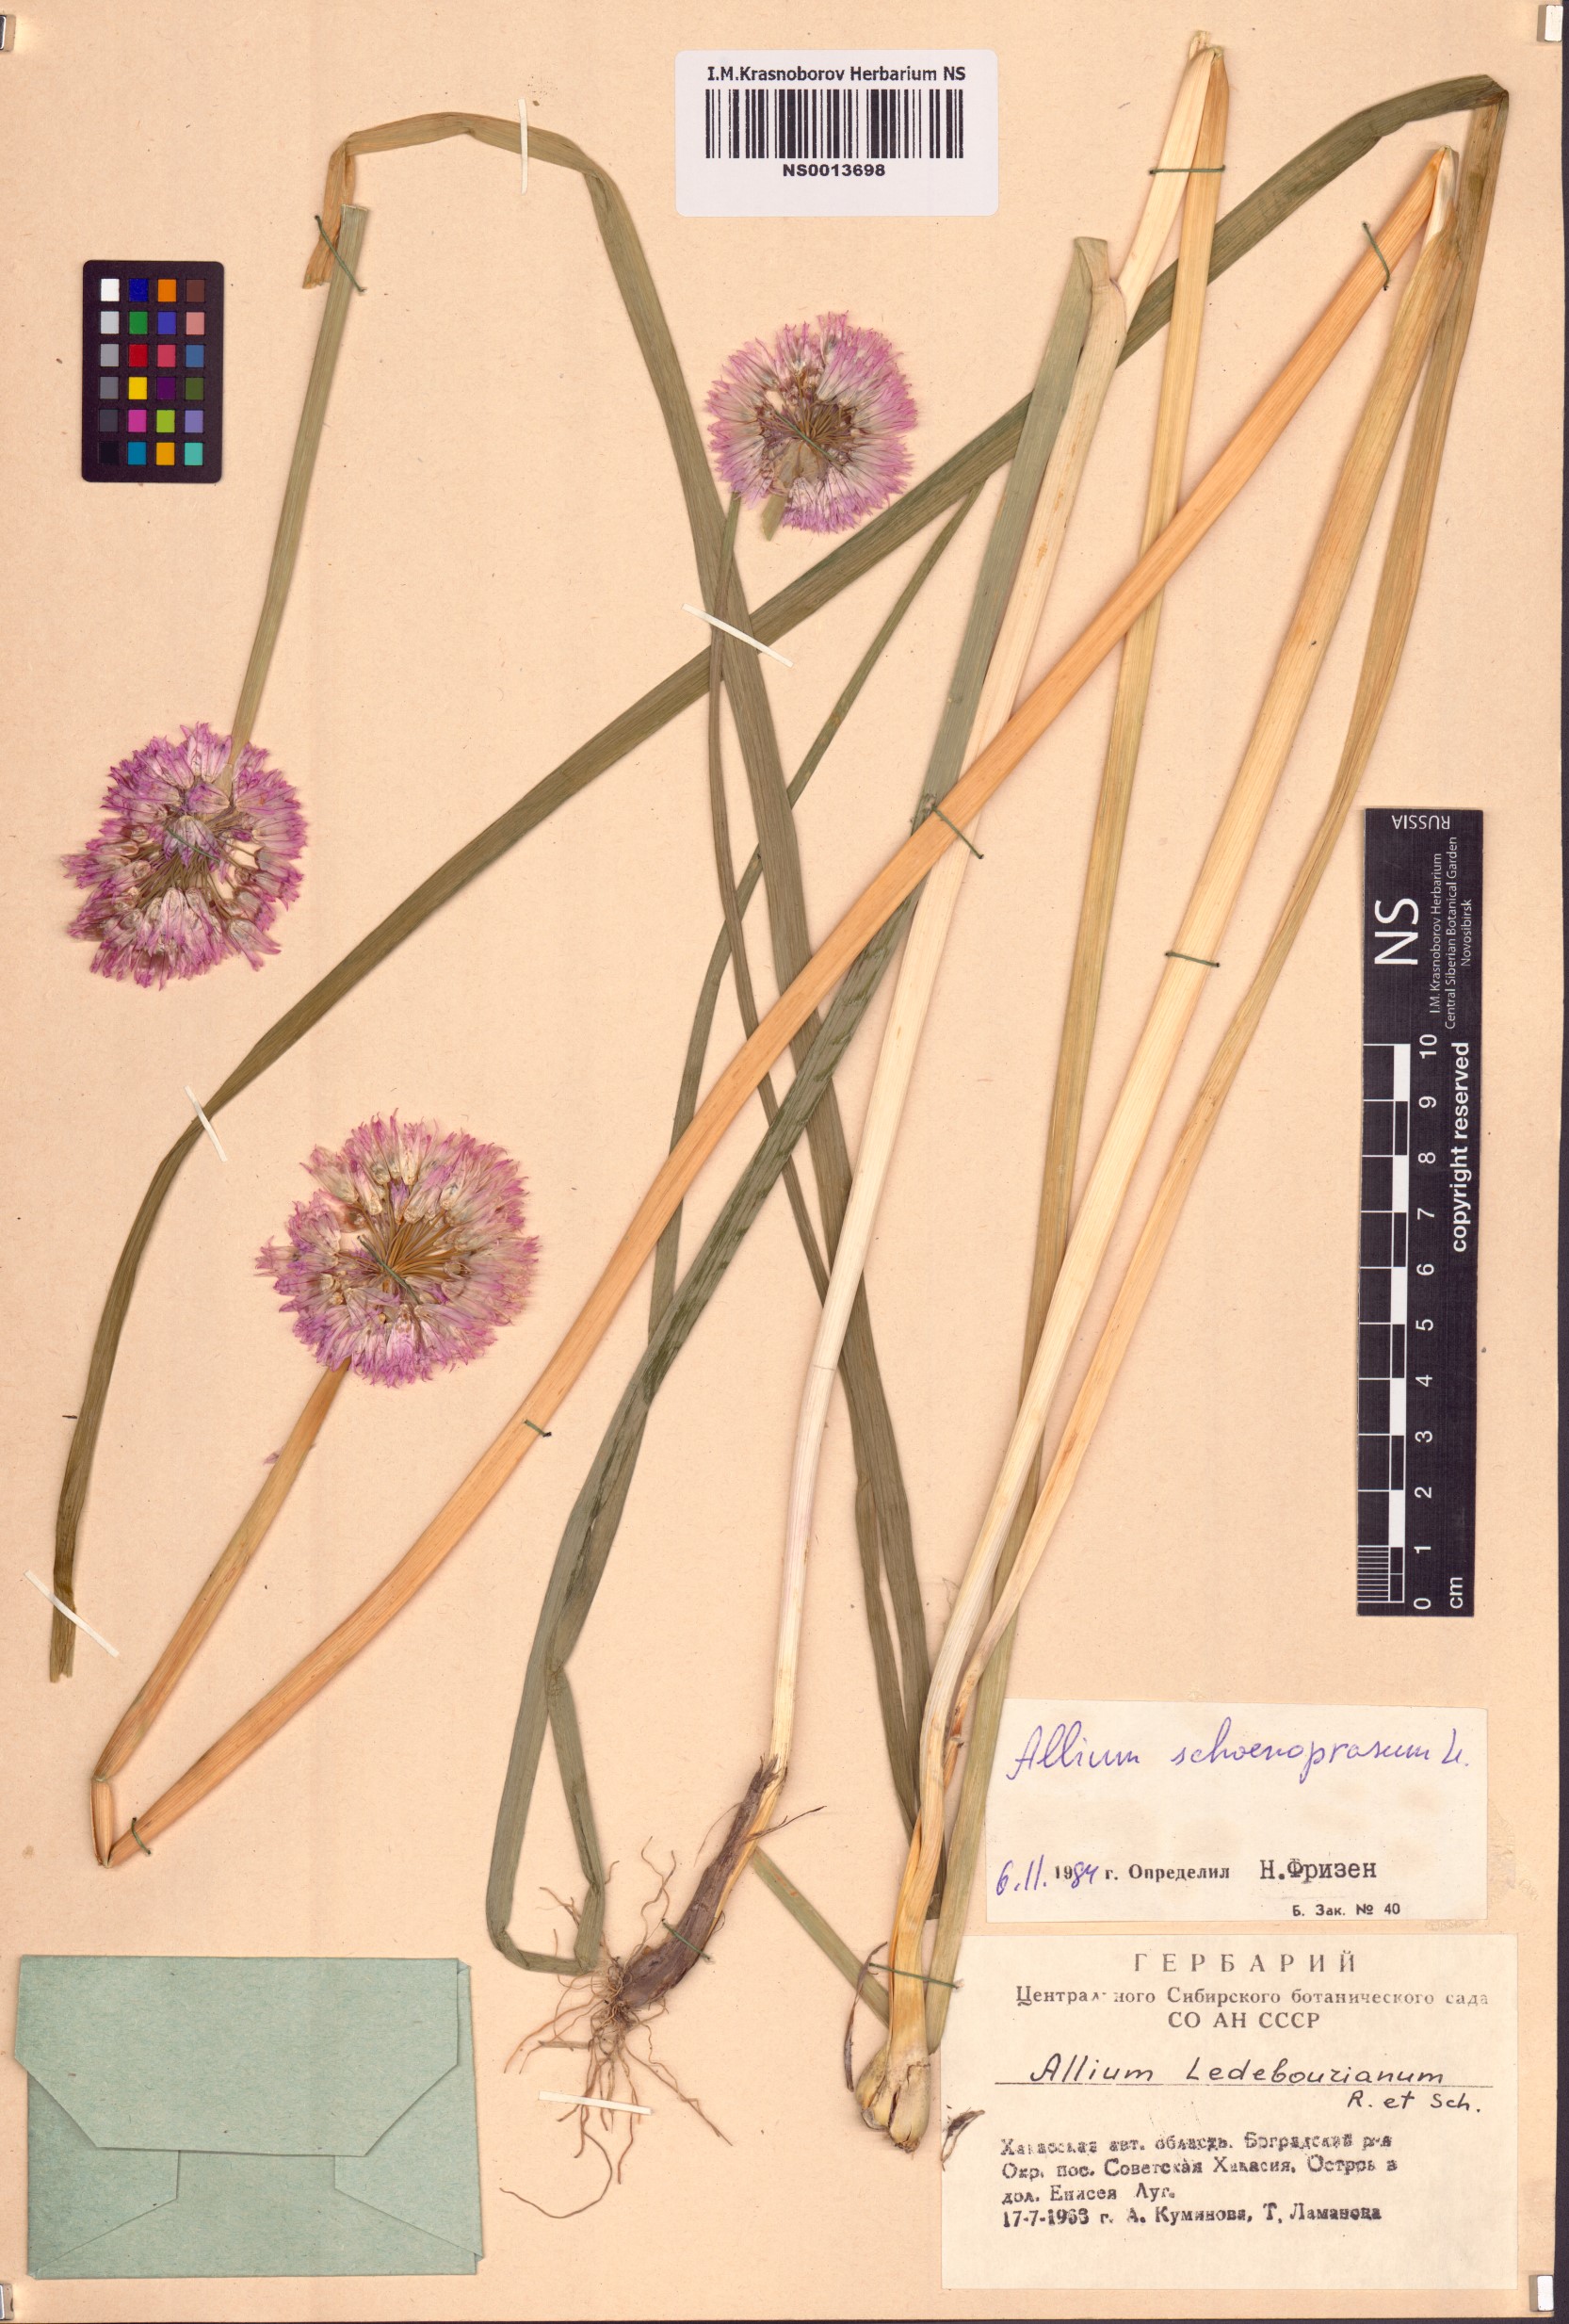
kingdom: Plantae
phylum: Tracheophyta
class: Liliopsida
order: Asparagales
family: Amaryllidaceae
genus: Allium
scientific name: Allium schoenoprasum
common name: Chives
